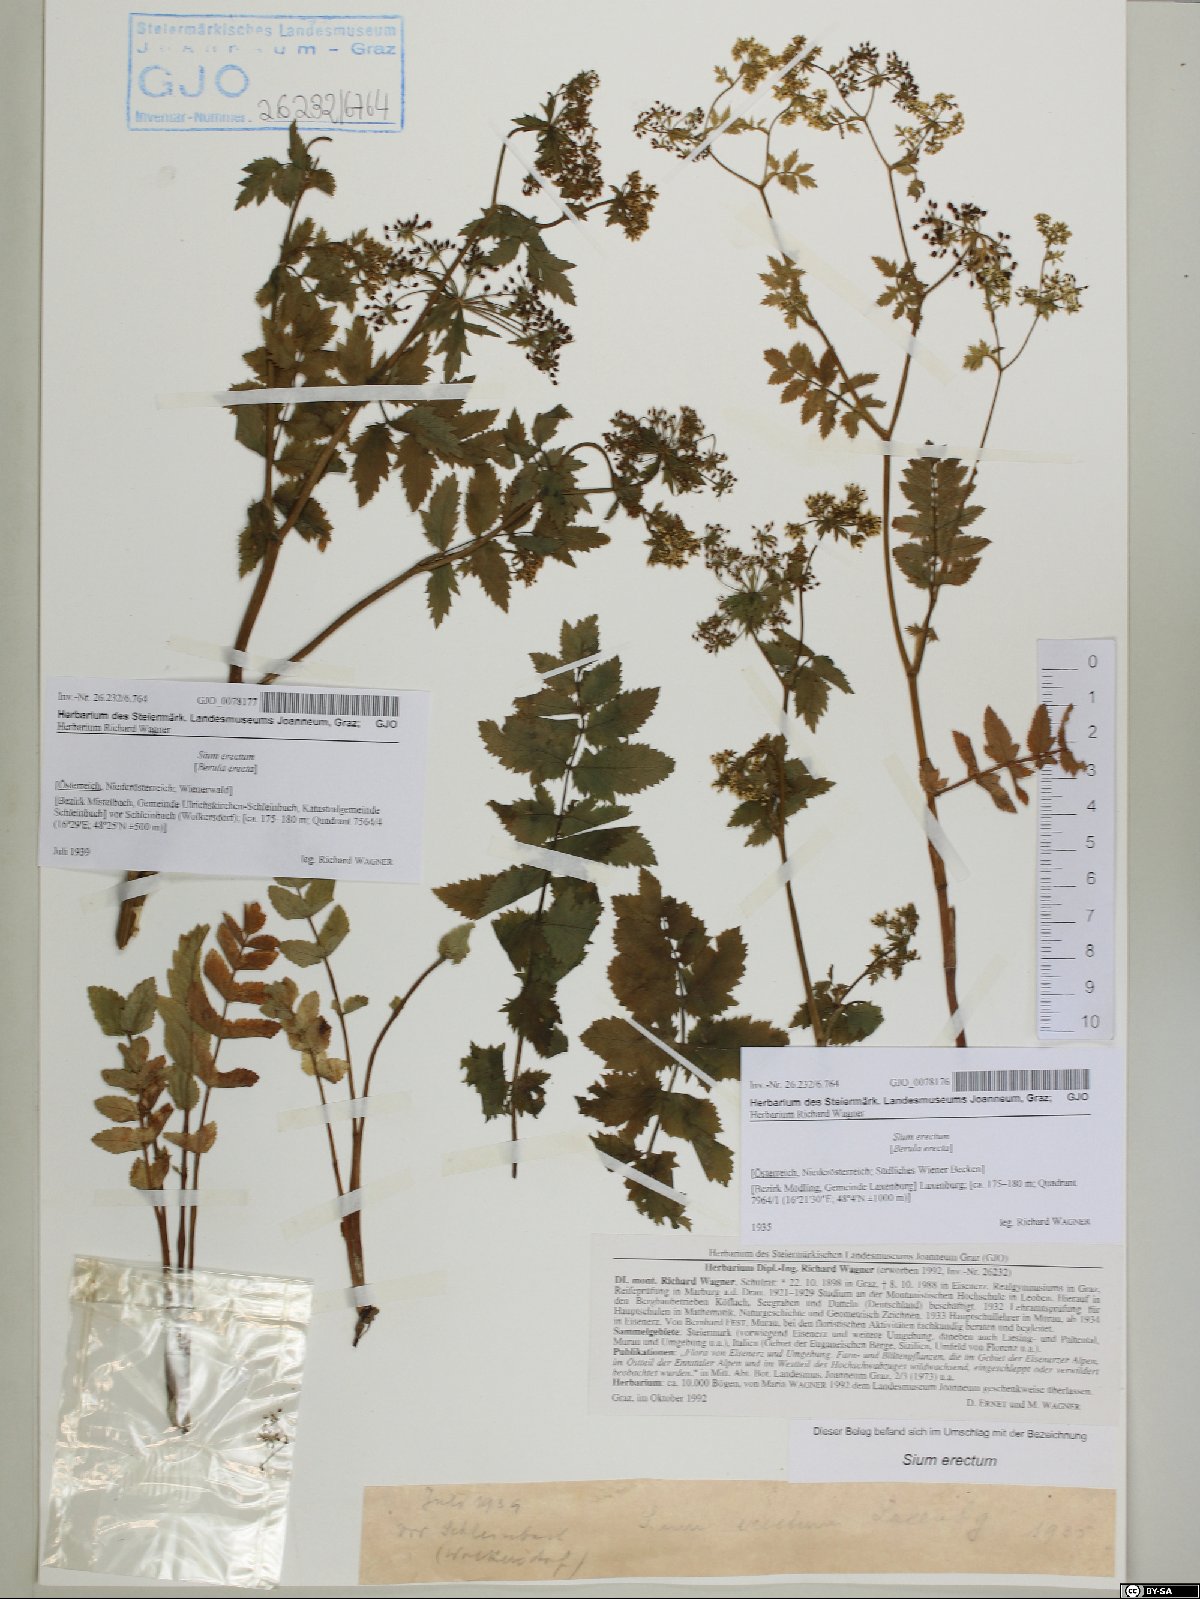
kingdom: Plantae
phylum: Tracheophyta
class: Magnoliopsida
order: Apiales
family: Apiaceae
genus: Berula
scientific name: Berula erecta
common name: Lesser water-parsnip
